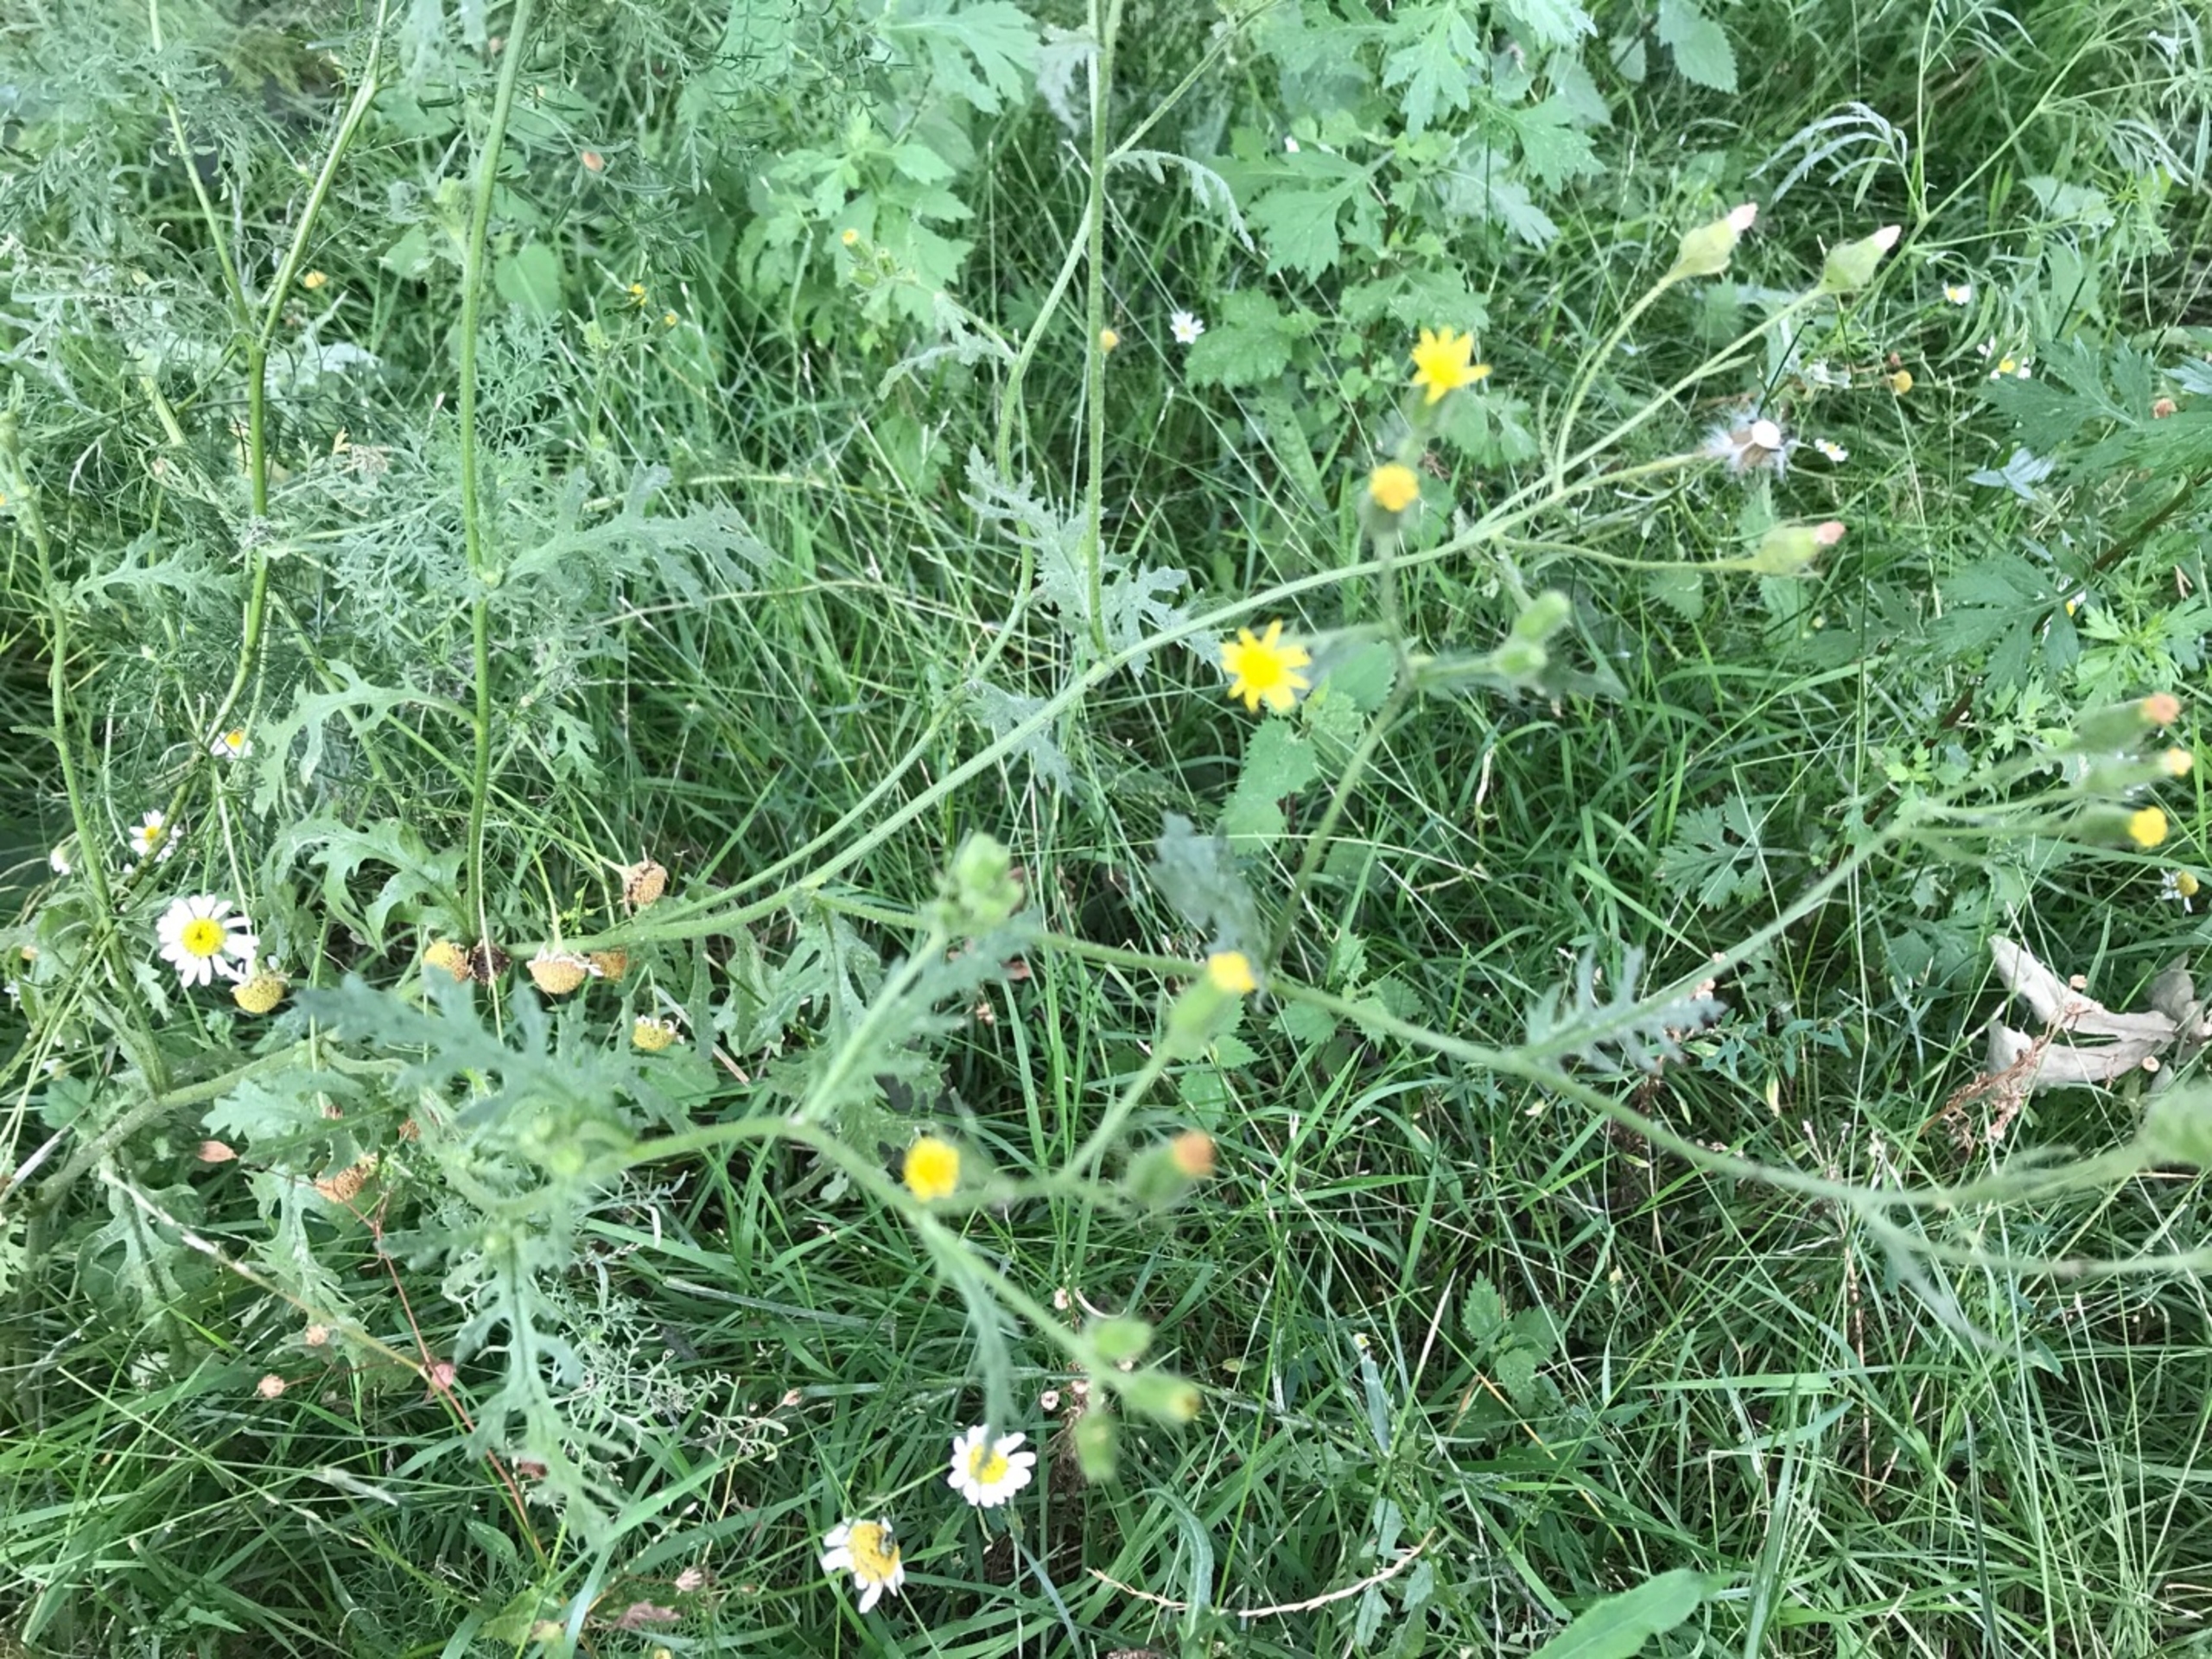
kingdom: Plantae
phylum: Tracheophyta
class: Magnoliopsida
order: Asterales
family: Asteraceae
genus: Senecio
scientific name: Senecio viscosus
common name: Klæbrig brandbæger
